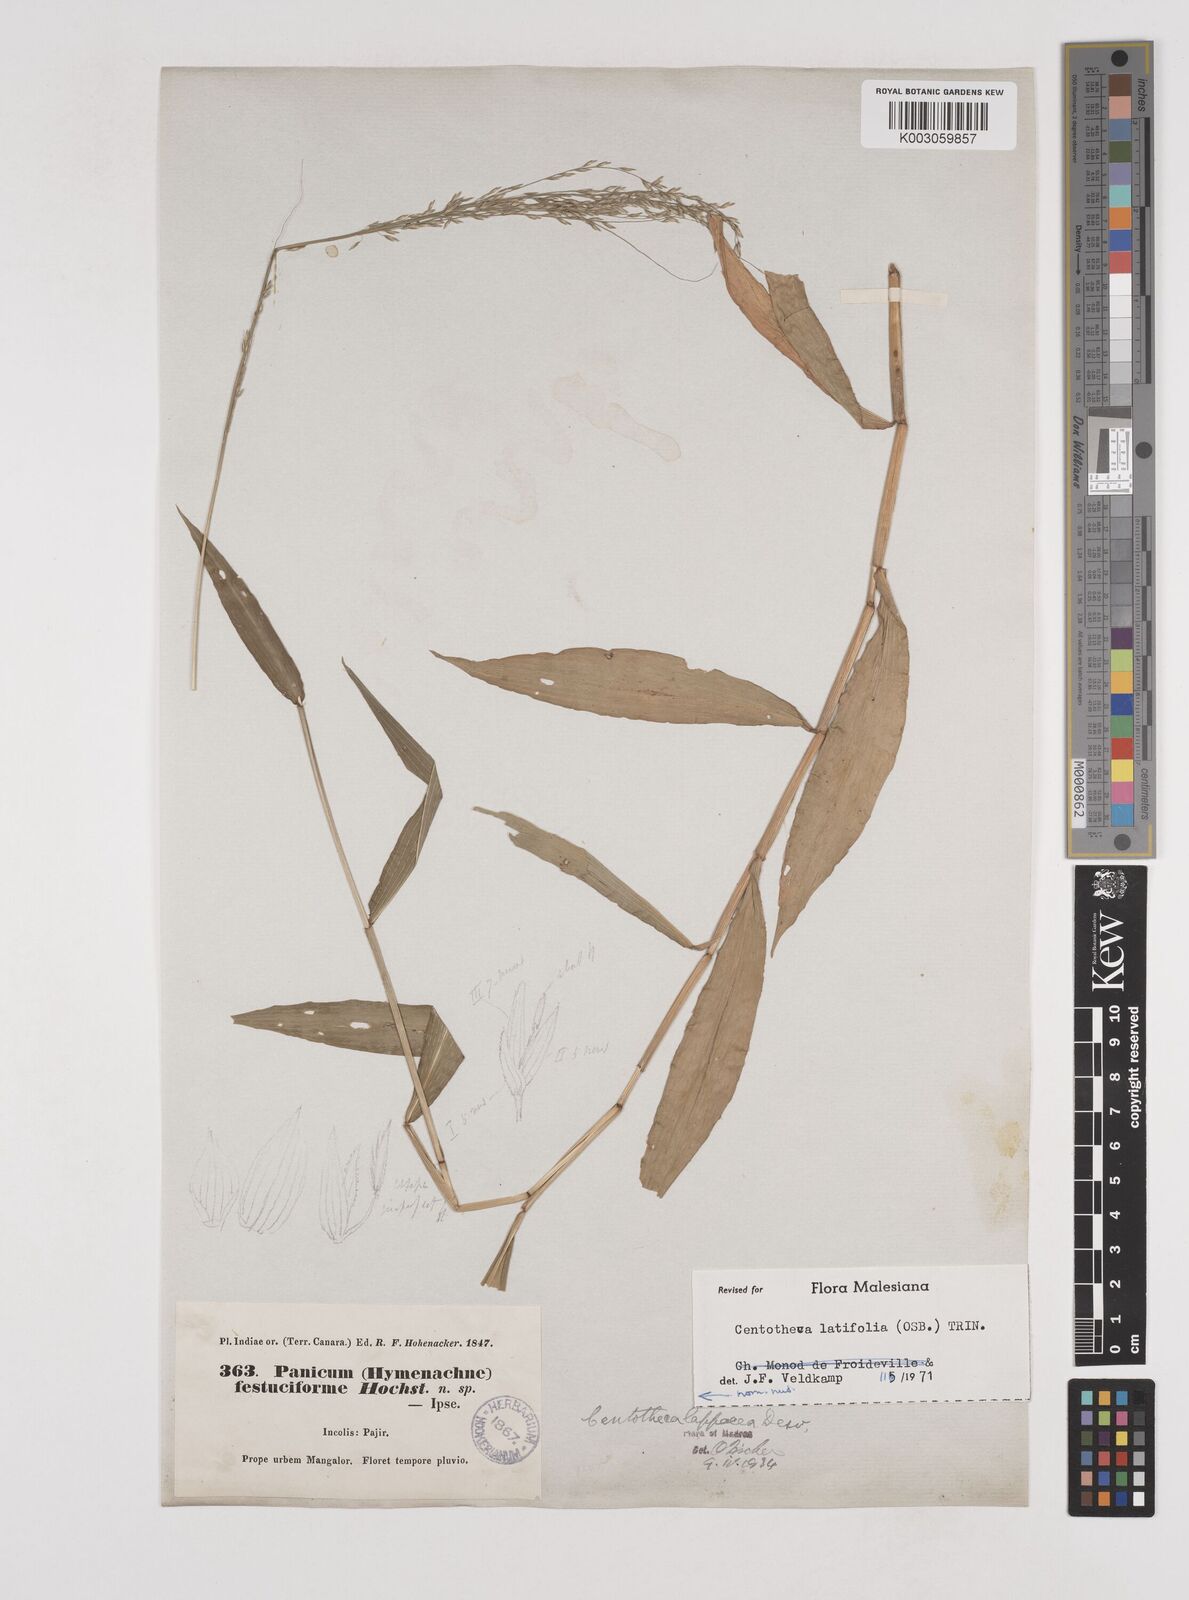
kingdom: Plantae
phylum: Tracheophyta
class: Liliopsida
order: Poales
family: Poaceae
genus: Centotheca
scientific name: Centotheca lappacea
